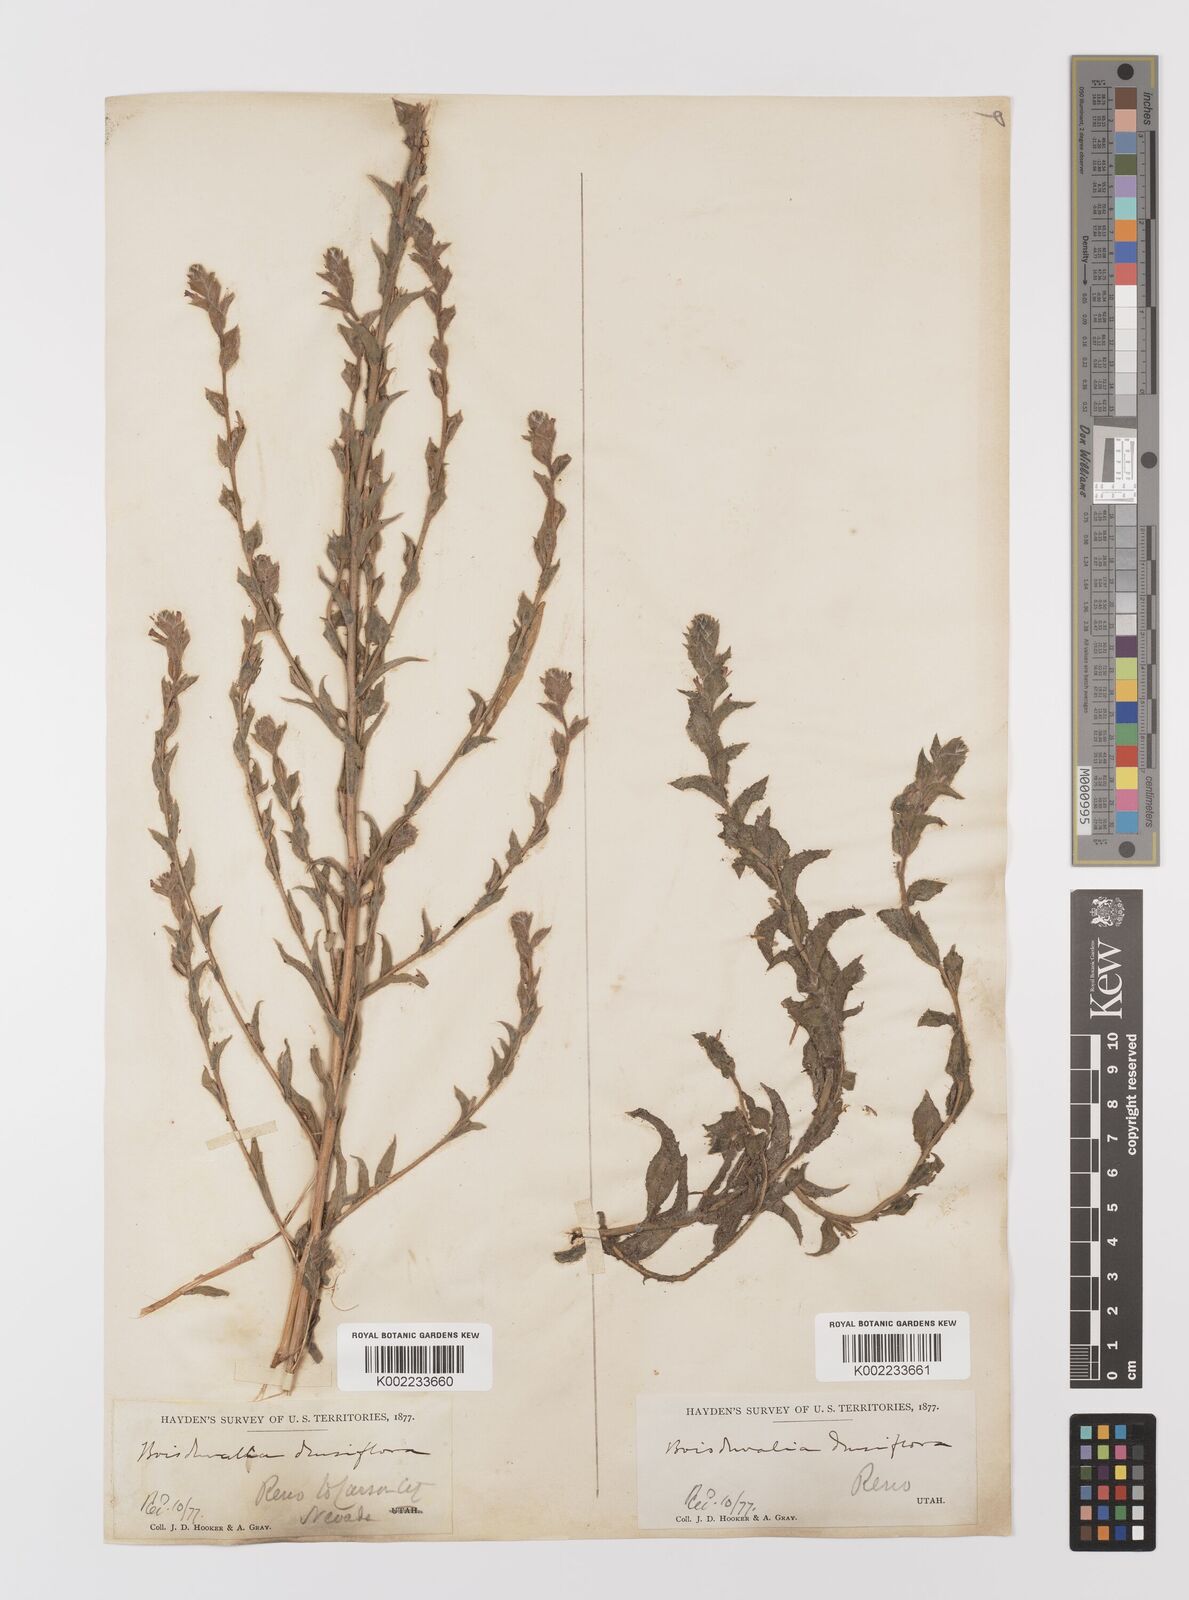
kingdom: Plantae
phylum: Tracheophyta
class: Magnoliopsida
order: Myrtales
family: Onagraceae
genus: Epilobium
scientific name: Epilobium densiflorum
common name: Dense spike-primrose
